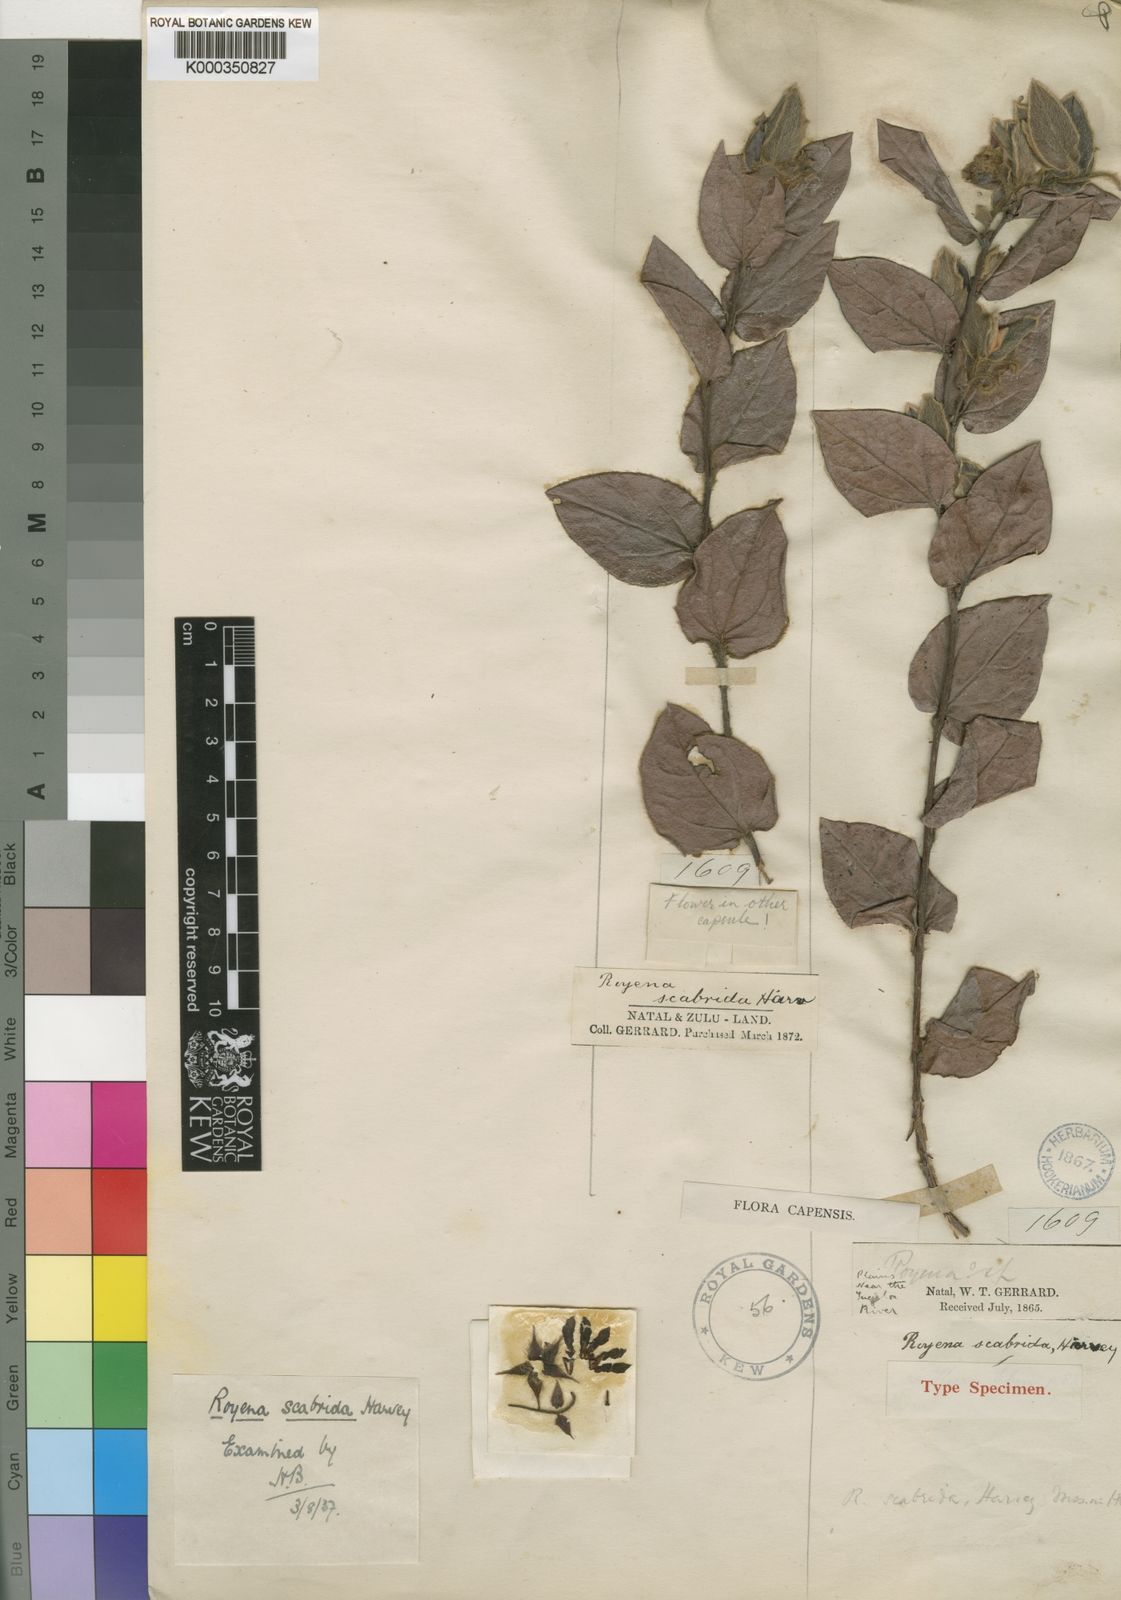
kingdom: Plantae
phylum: Tracheophyta
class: Magnoliopsida
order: Ericales
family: Ebenaceae
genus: Diospyros
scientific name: Diospyros scabrida
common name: Coastal bladder-nut
